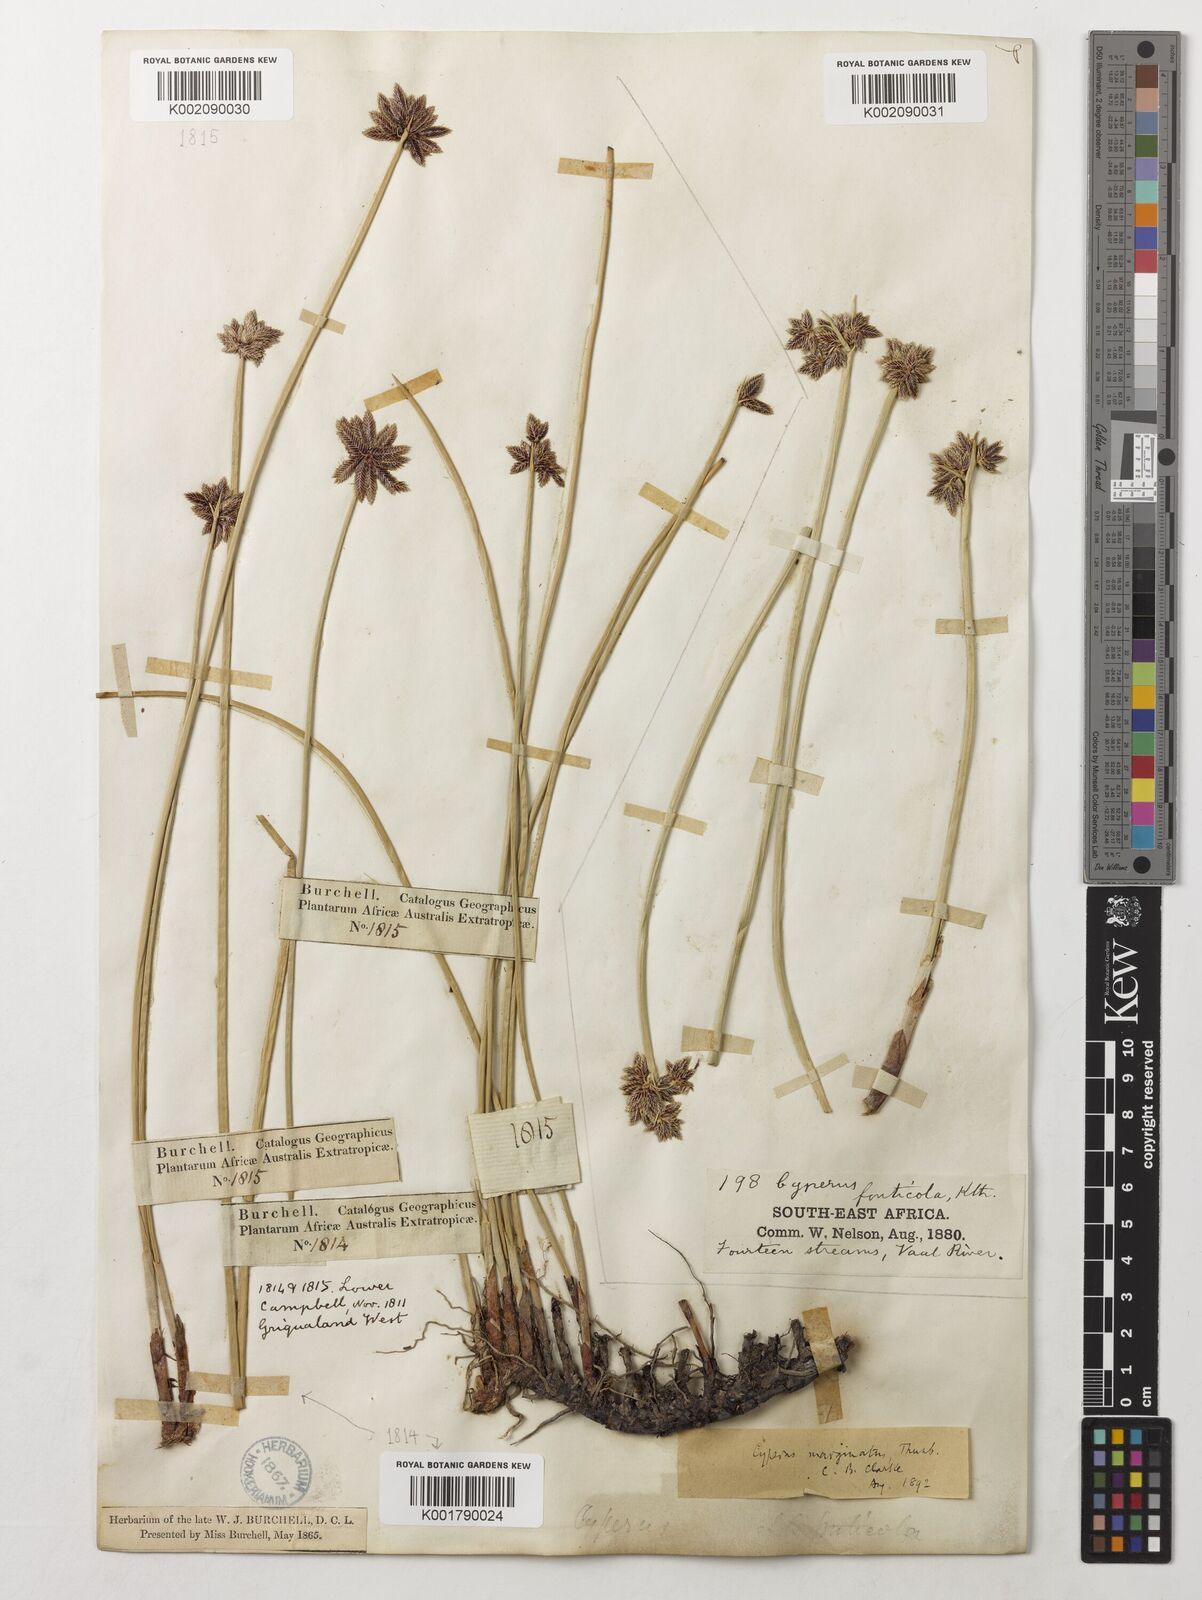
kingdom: Plantae
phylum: Tracheophyta
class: Liliopsida
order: Poales
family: Cyperaceae
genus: Cyperus
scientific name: Cyperus marginatus
